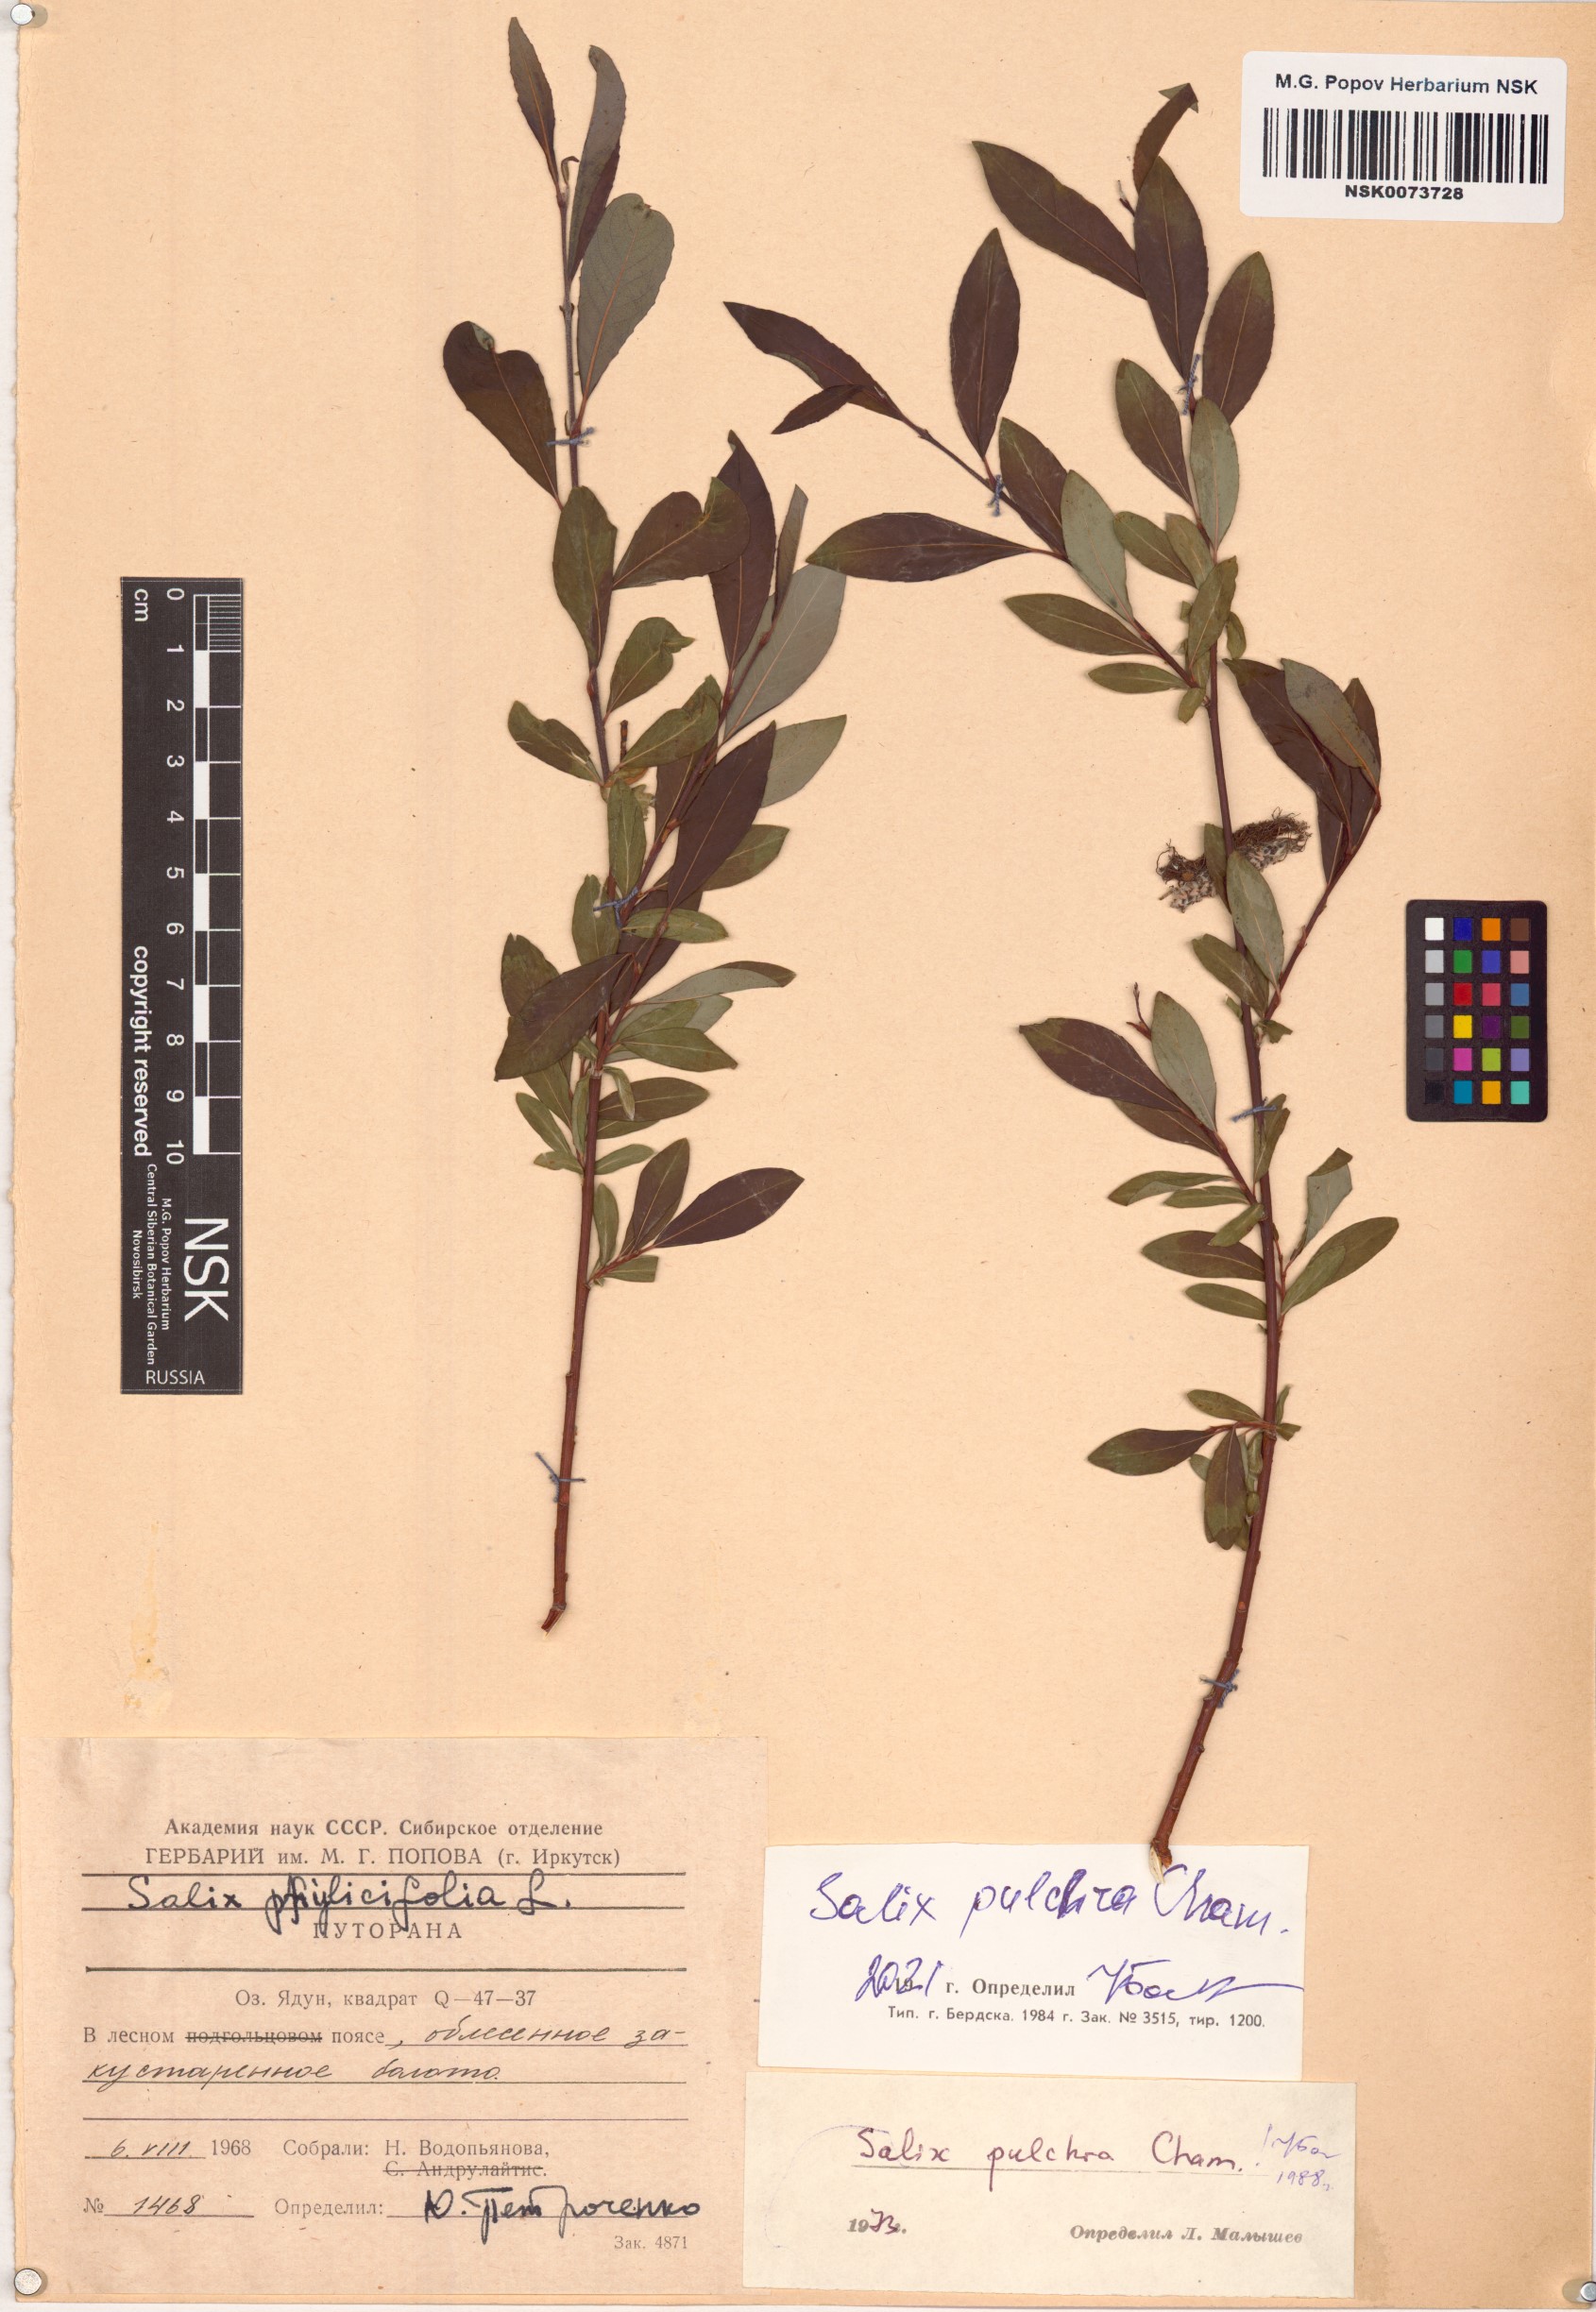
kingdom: Plantae
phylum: Tracheophyta
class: Magnoliopsida
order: Malpighiales
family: Salicaceae
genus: Salix
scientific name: Salix pulchra
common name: Diamond-leaved willow
